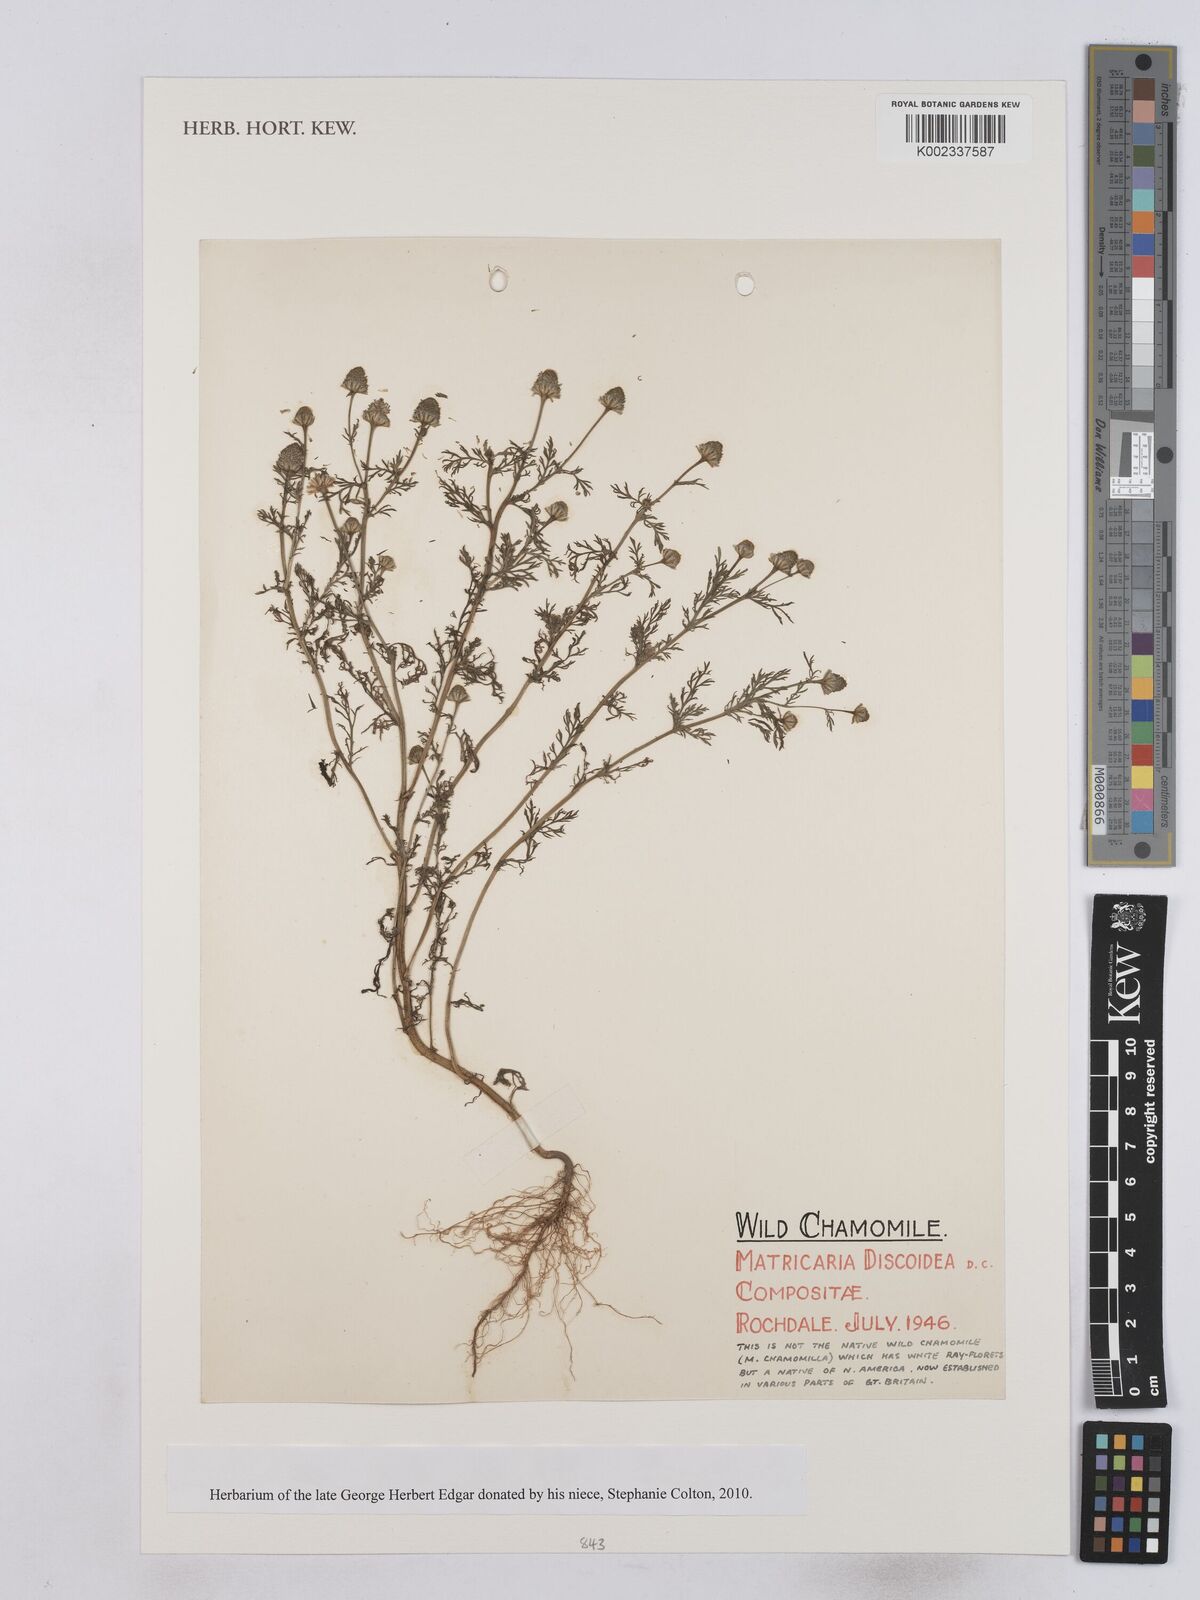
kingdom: Plantae
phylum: Tracheophyta
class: Magnoliopsida
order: Asterales
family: Asteraceae
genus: Matricaria
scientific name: Matricaria discoidea
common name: Disc mayweed
